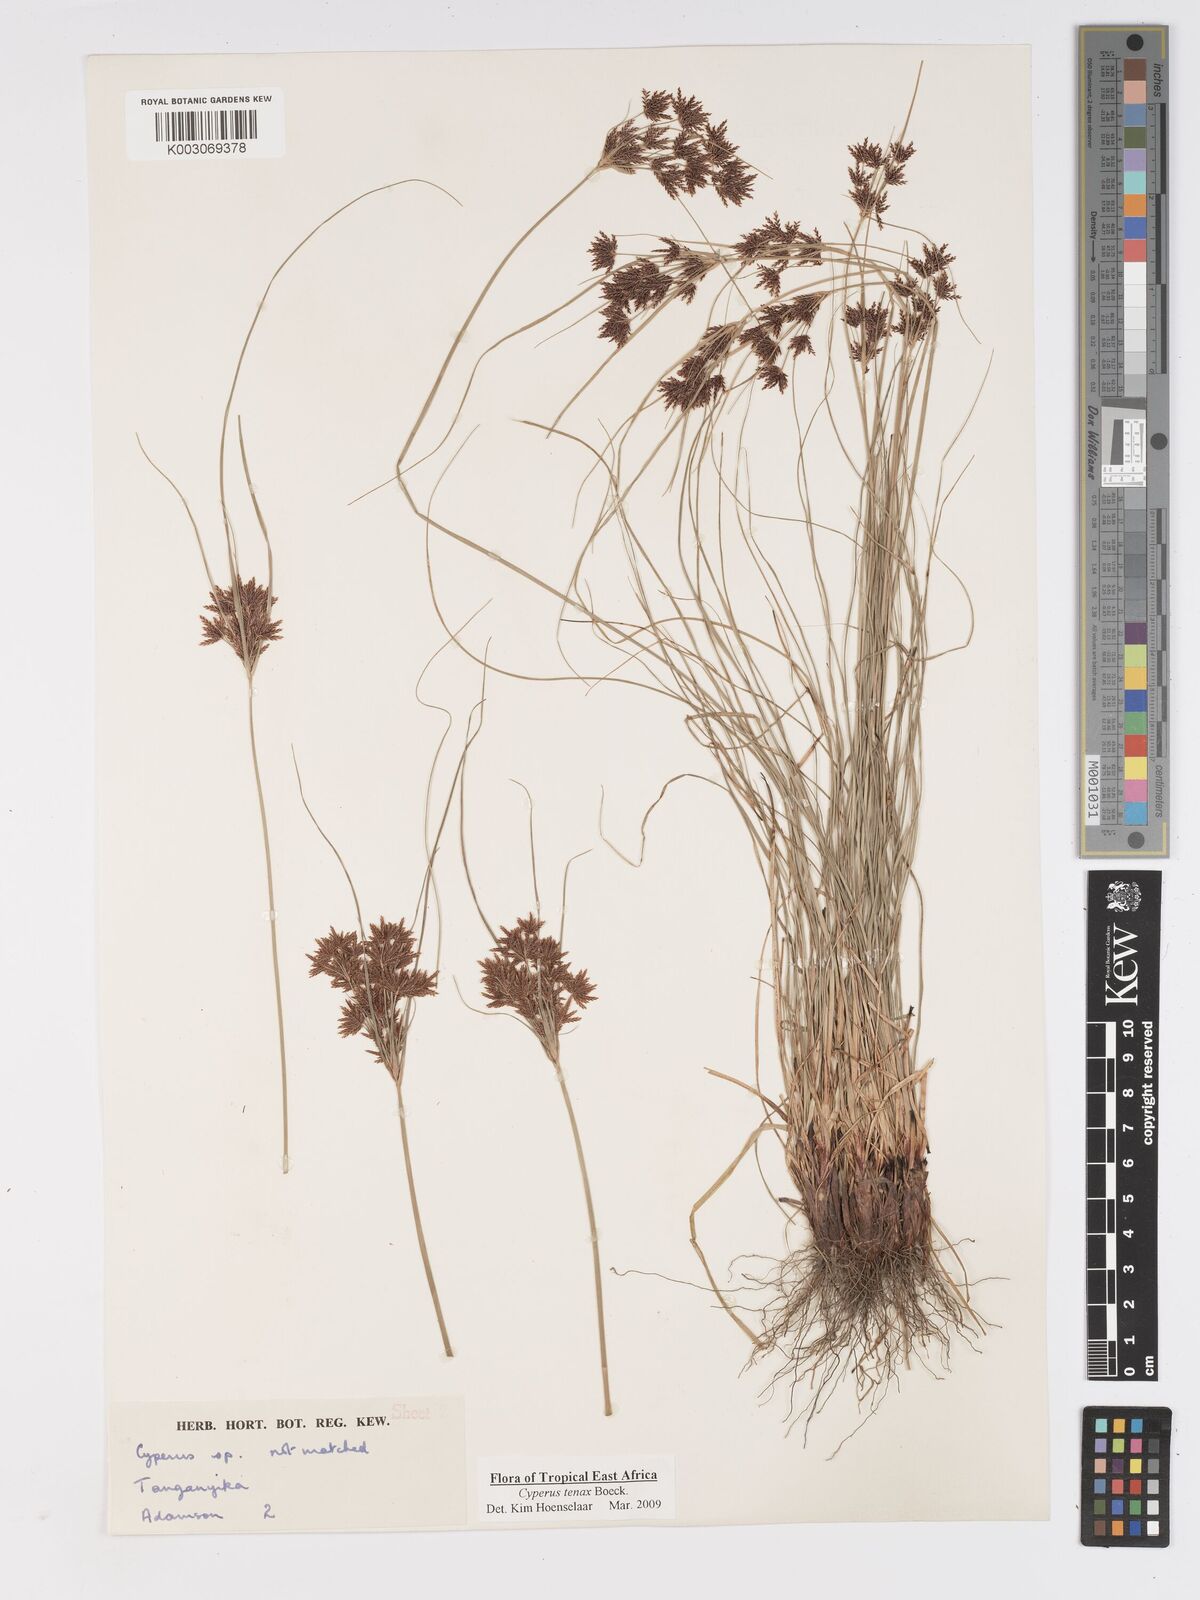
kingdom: Plantae
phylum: Tracheophyta
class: Liliopsida
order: Poales
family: Cyperaceae
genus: Cyperus
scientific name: Cyperus tenax
